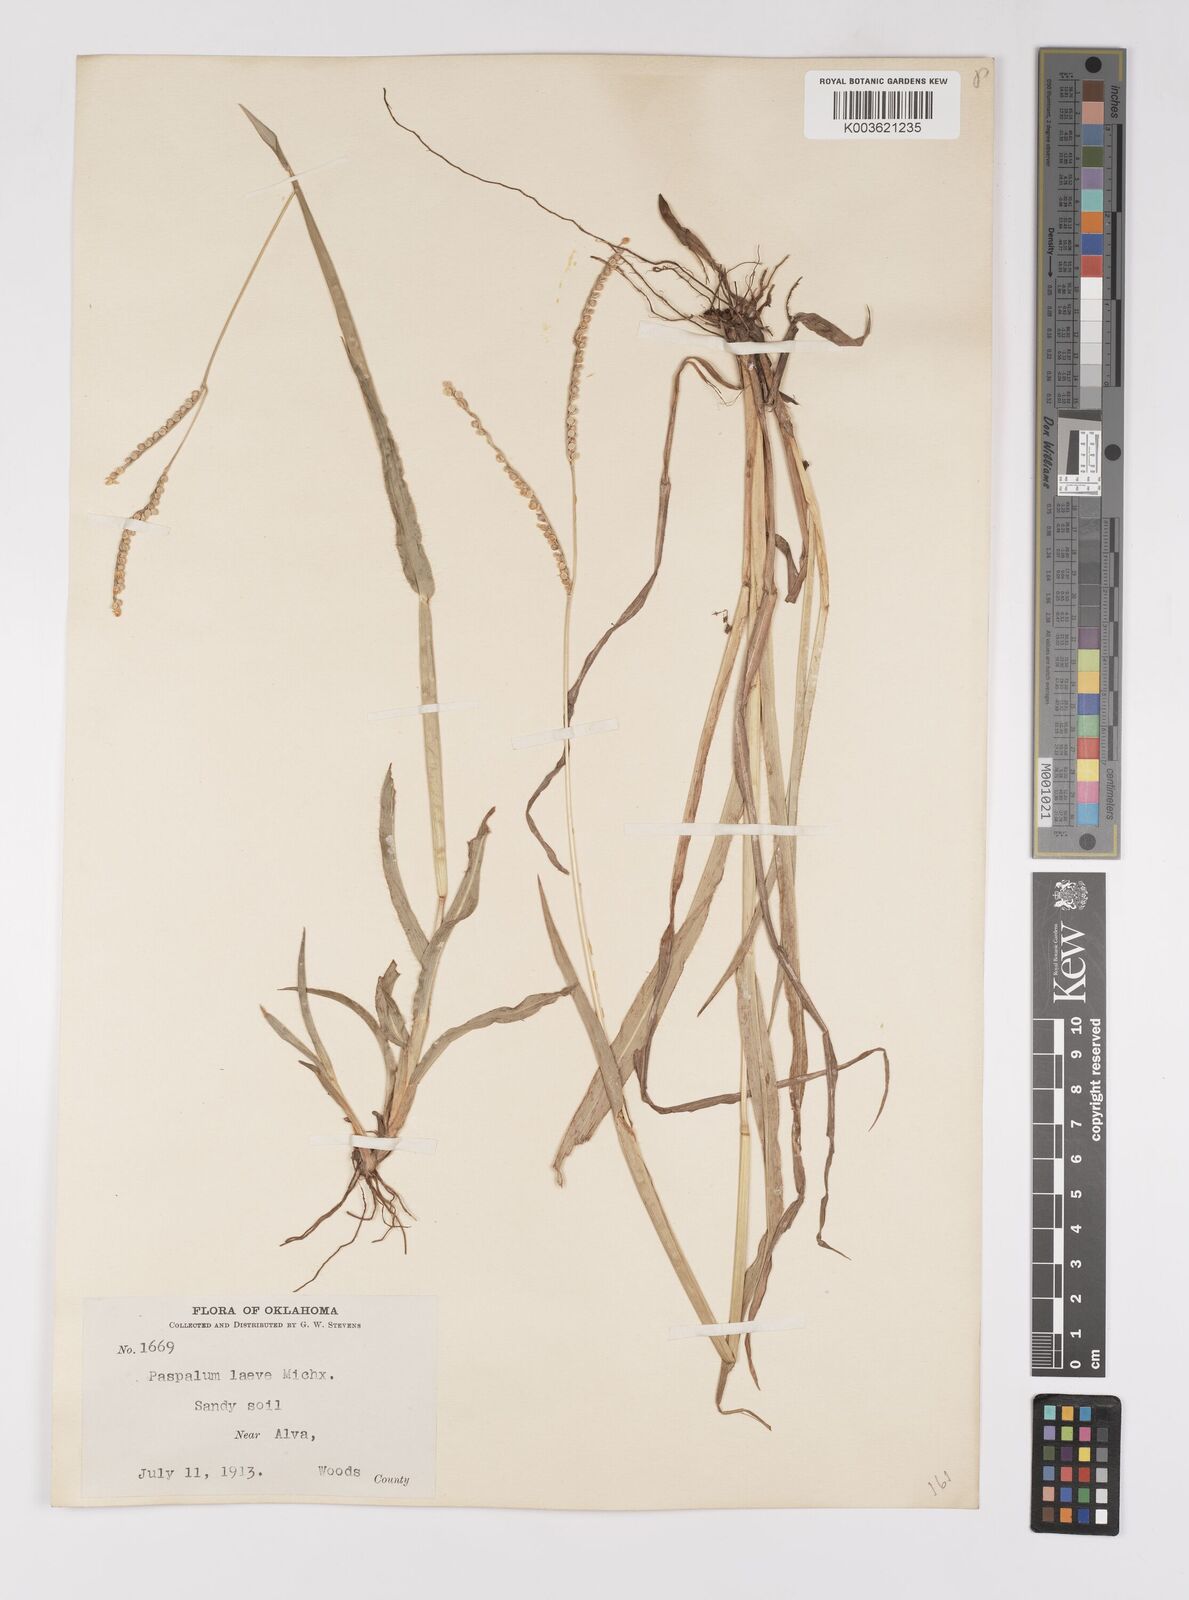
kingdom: Plantae
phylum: Tracheophyta
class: Liliopsida
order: Poales
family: Poaceae
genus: Paspalum
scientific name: Paspalum setaceum
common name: Slender paspalum
